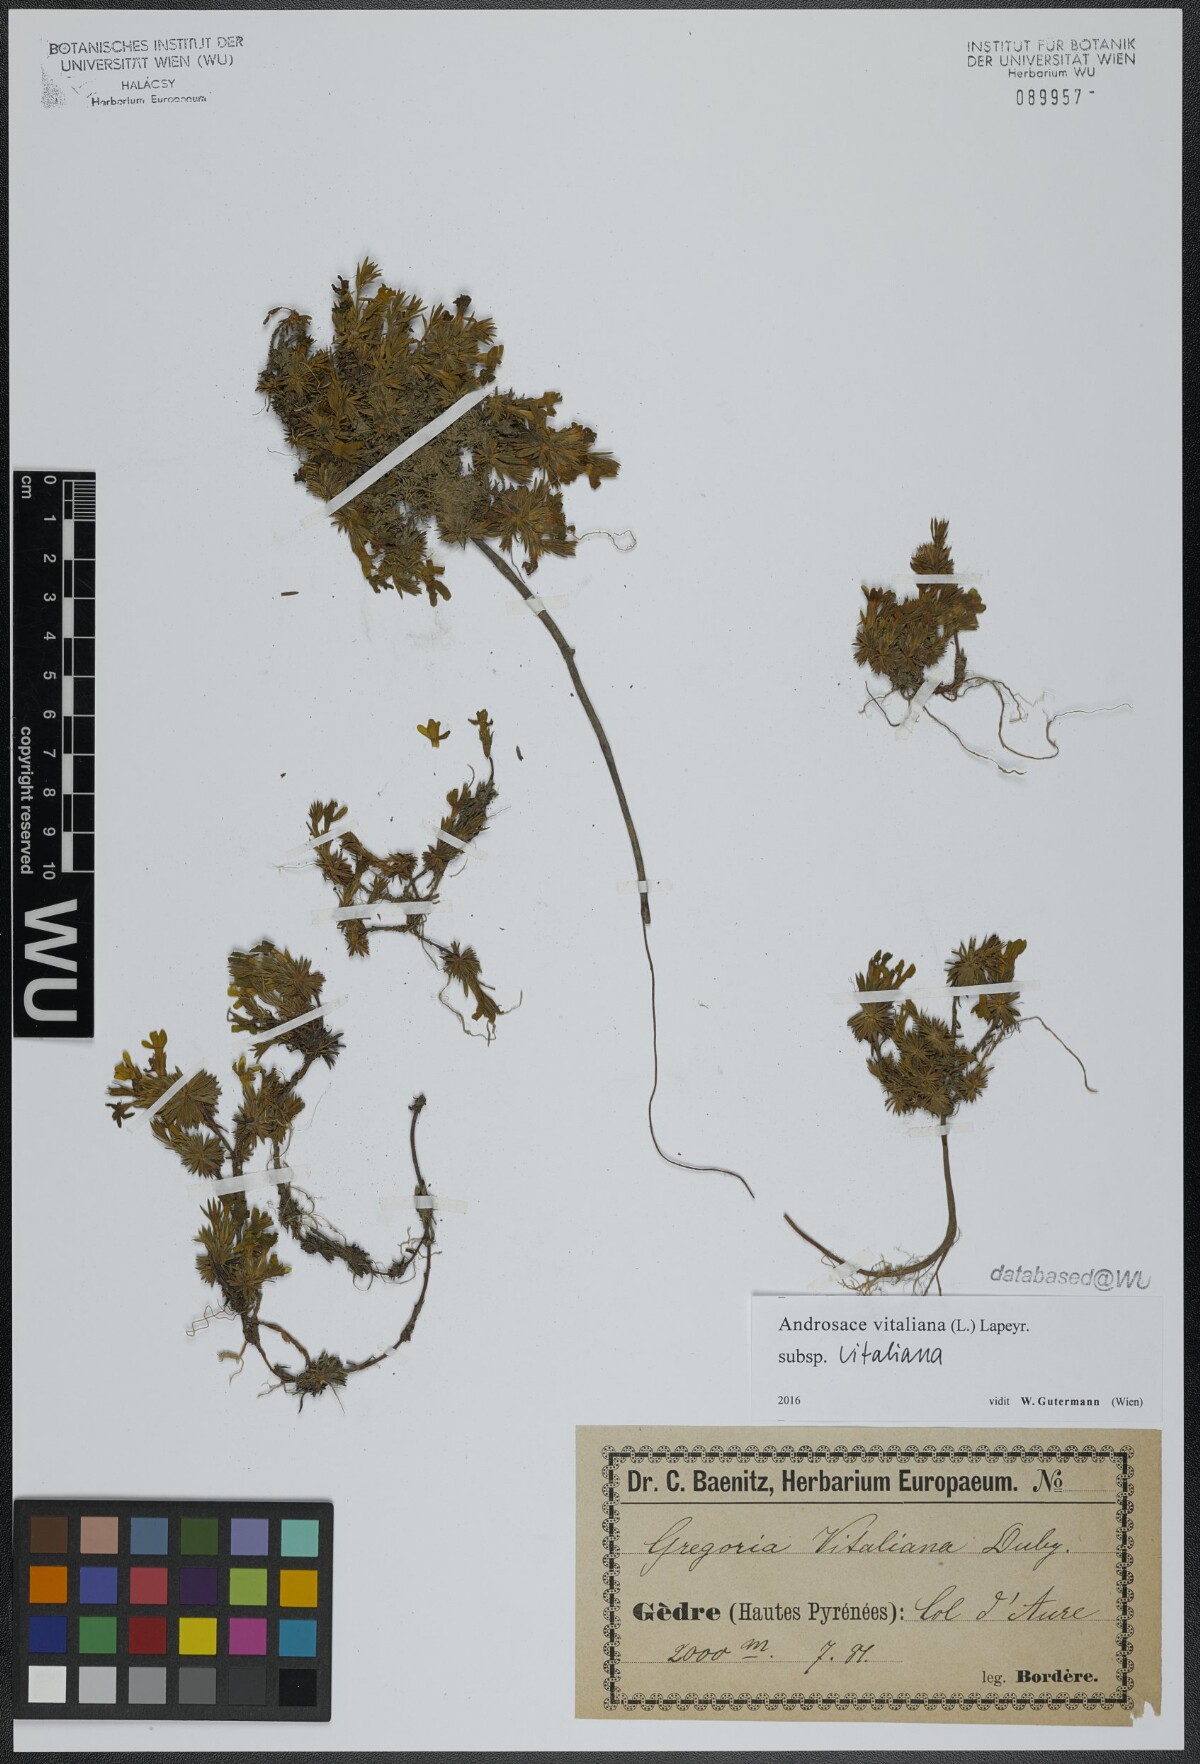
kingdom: Plantae
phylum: Tracheophyta
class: Magnoliopsida
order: Ericales
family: Primulaceae
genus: Androsace
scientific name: Androsace vitaliana
